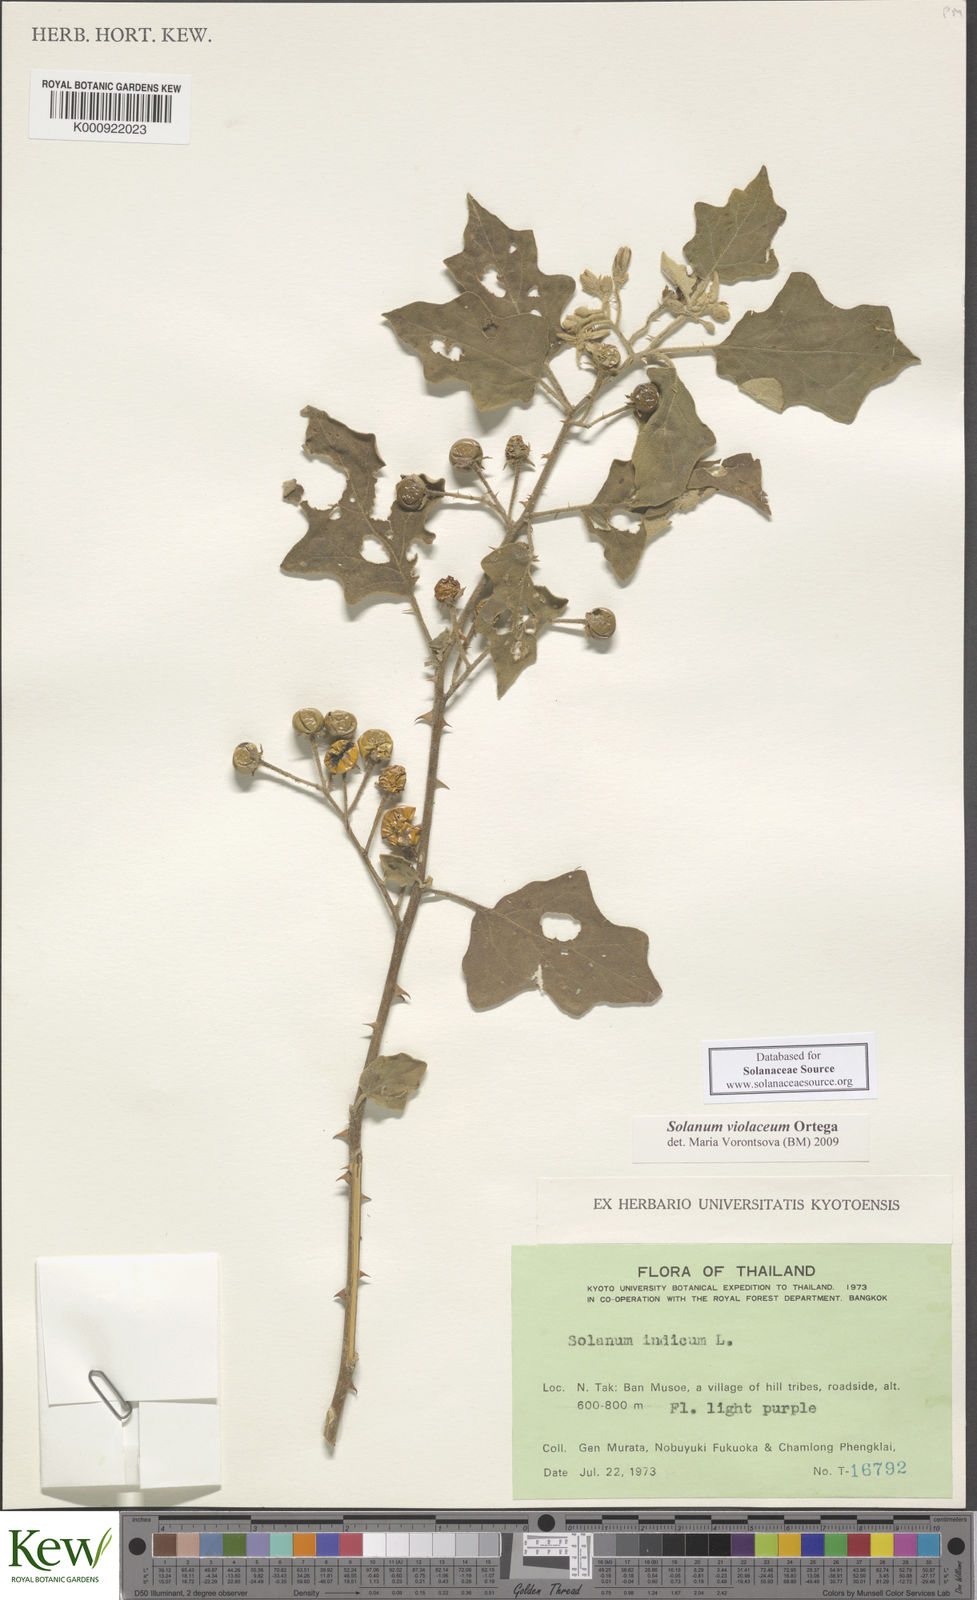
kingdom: Plantae
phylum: Tracheophyta
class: Magnoliopsida
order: Solanales
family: Solanaceae
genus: Solanum
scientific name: Solanum violaceum
